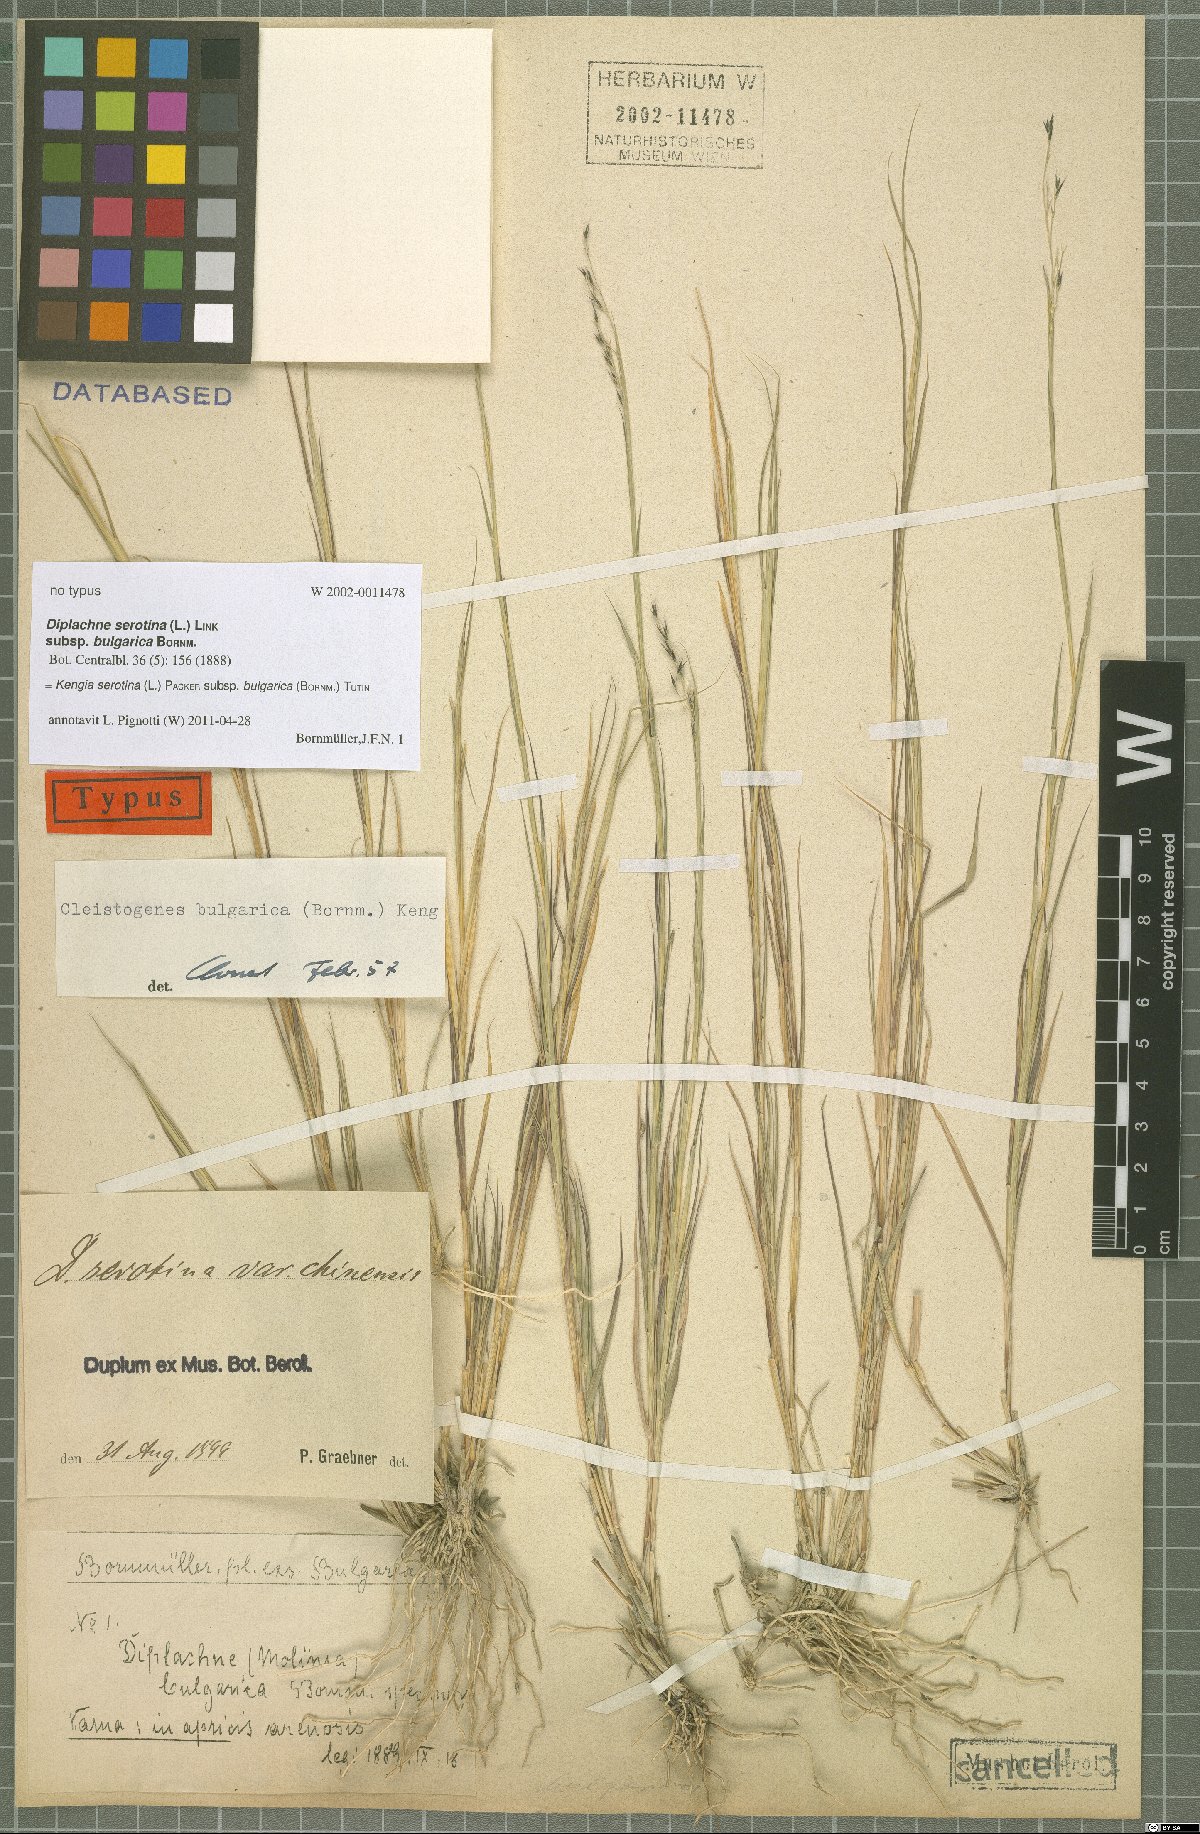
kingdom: Plantae
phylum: Tracheophyta
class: Liliopsida
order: Poales
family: Poaceae
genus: Cleistogenes
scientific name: Cleistogenes serotina
